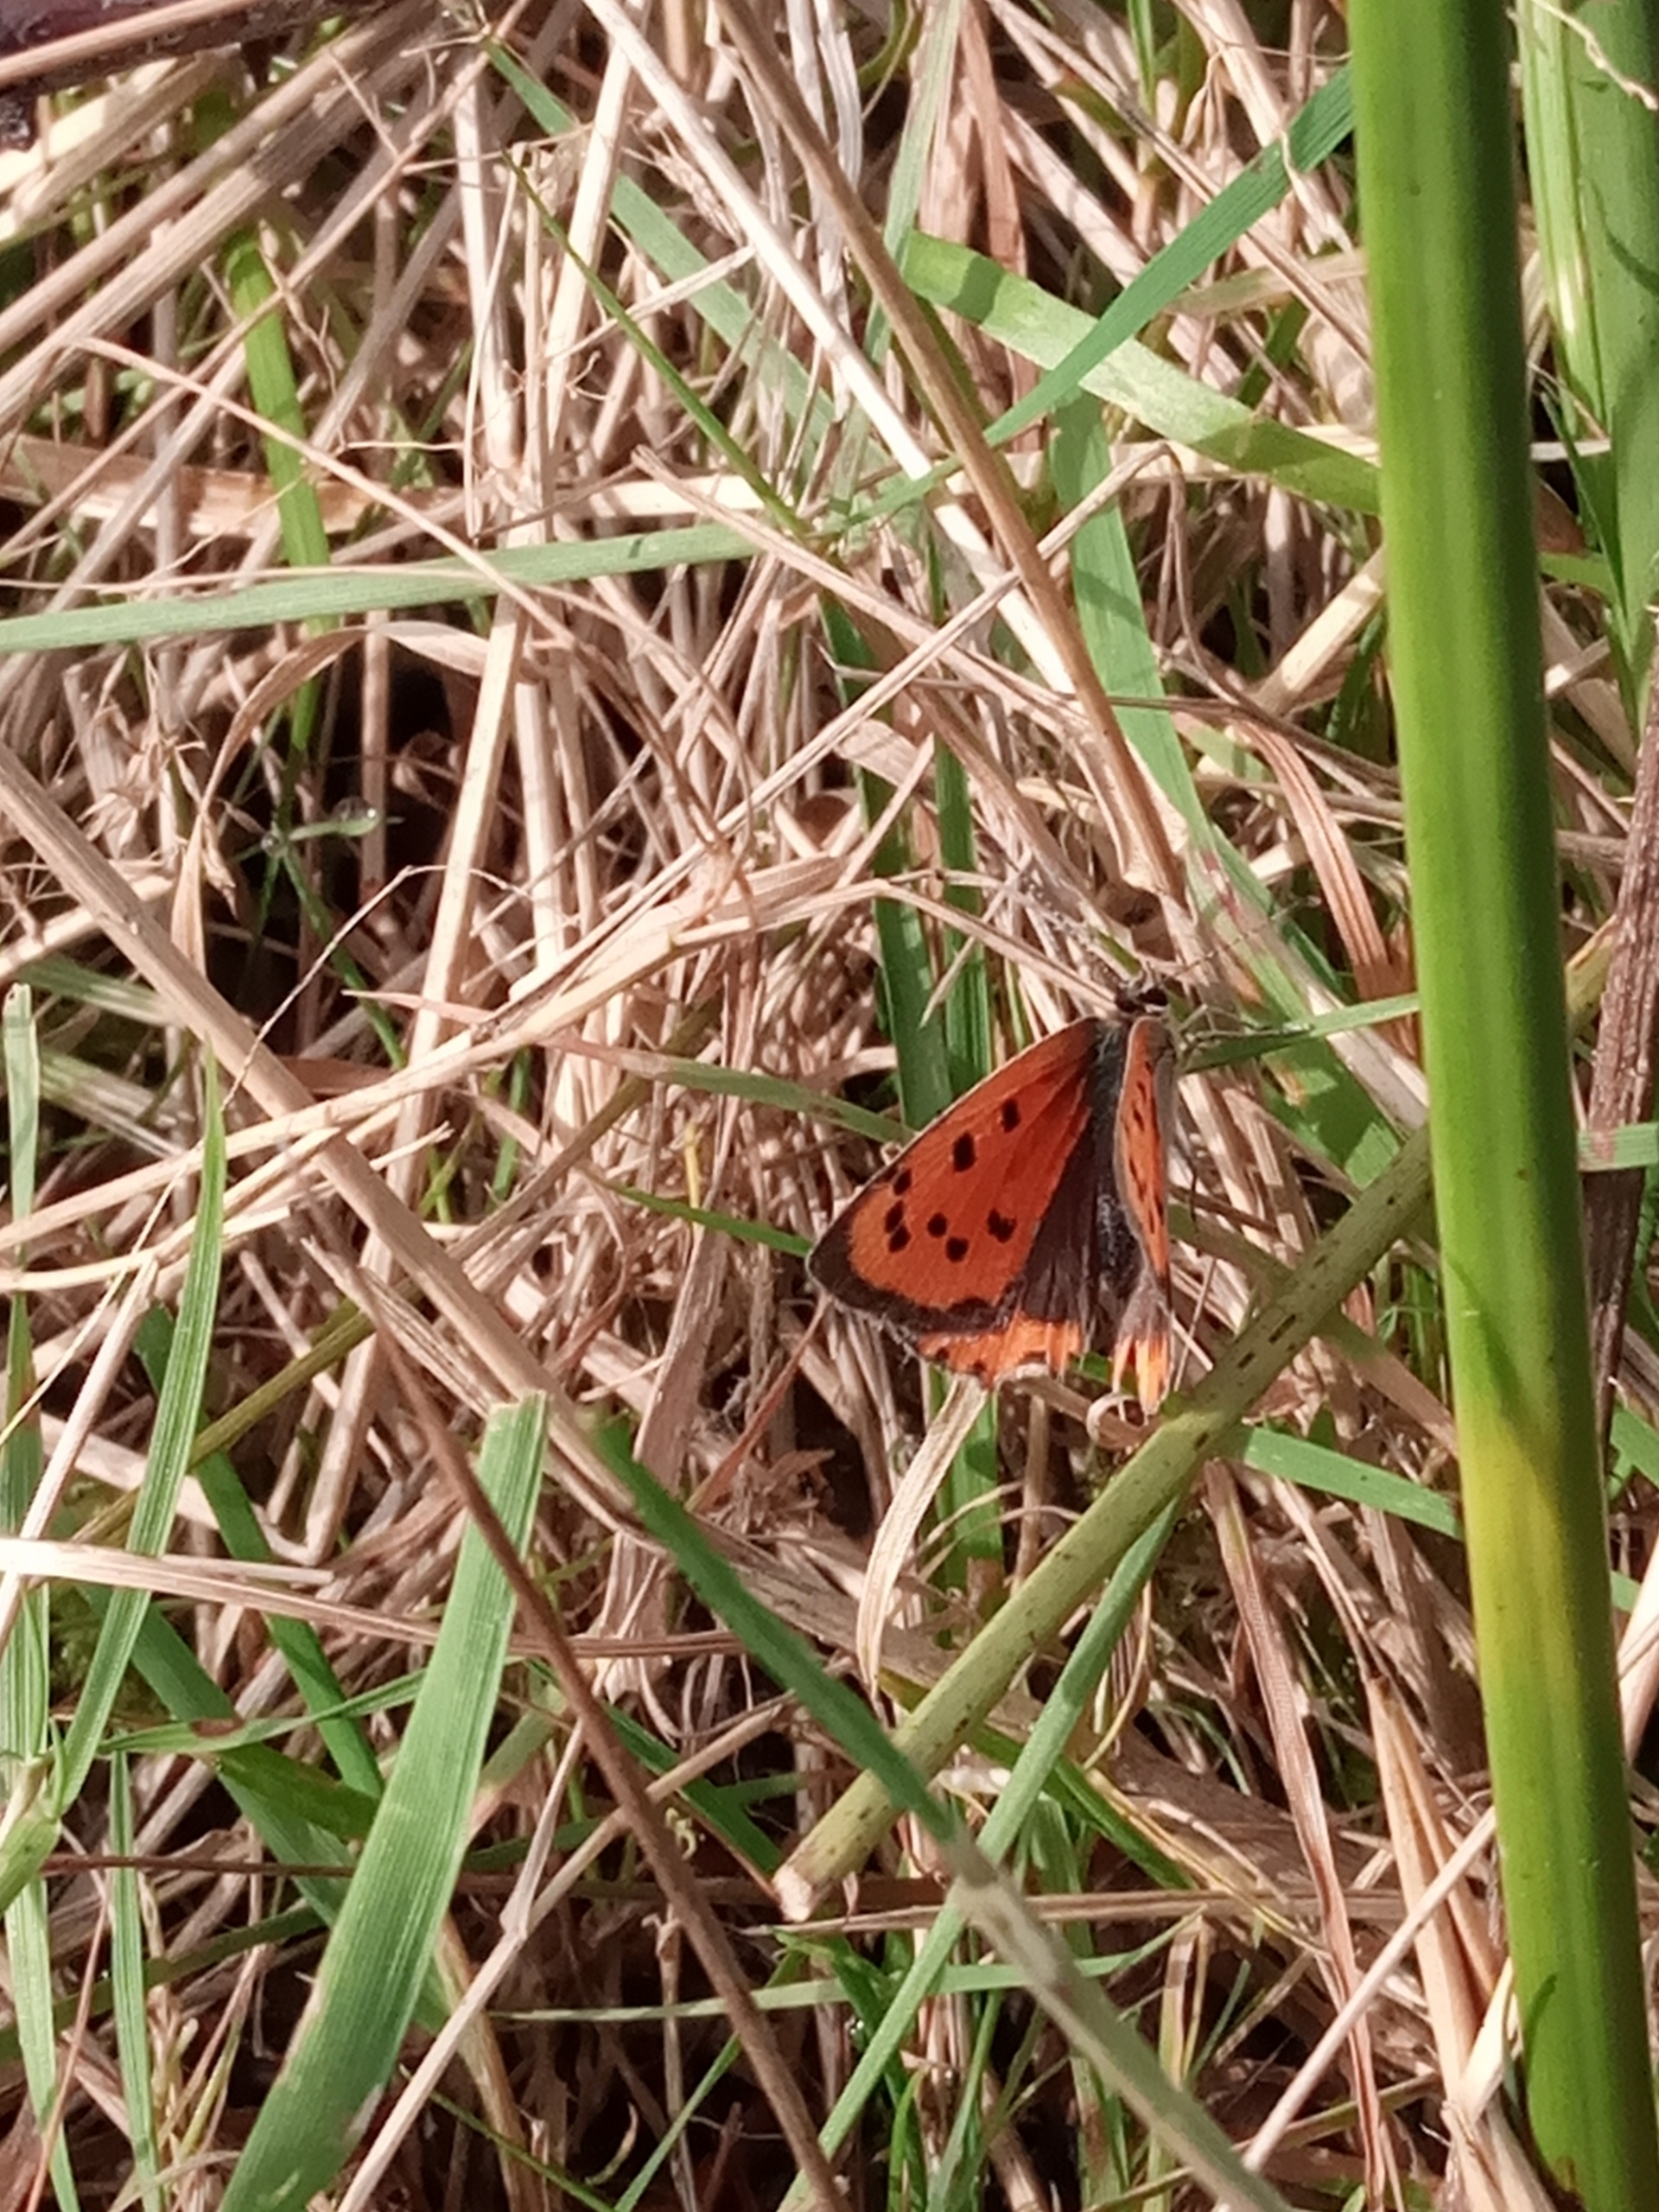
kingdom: Animalia
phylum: Arthropoda
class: Insecta
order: Lepidoptera
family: Lycaenidae
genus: Lycaena
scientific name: Lycaena phlaeas
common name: Lille ildfugl
